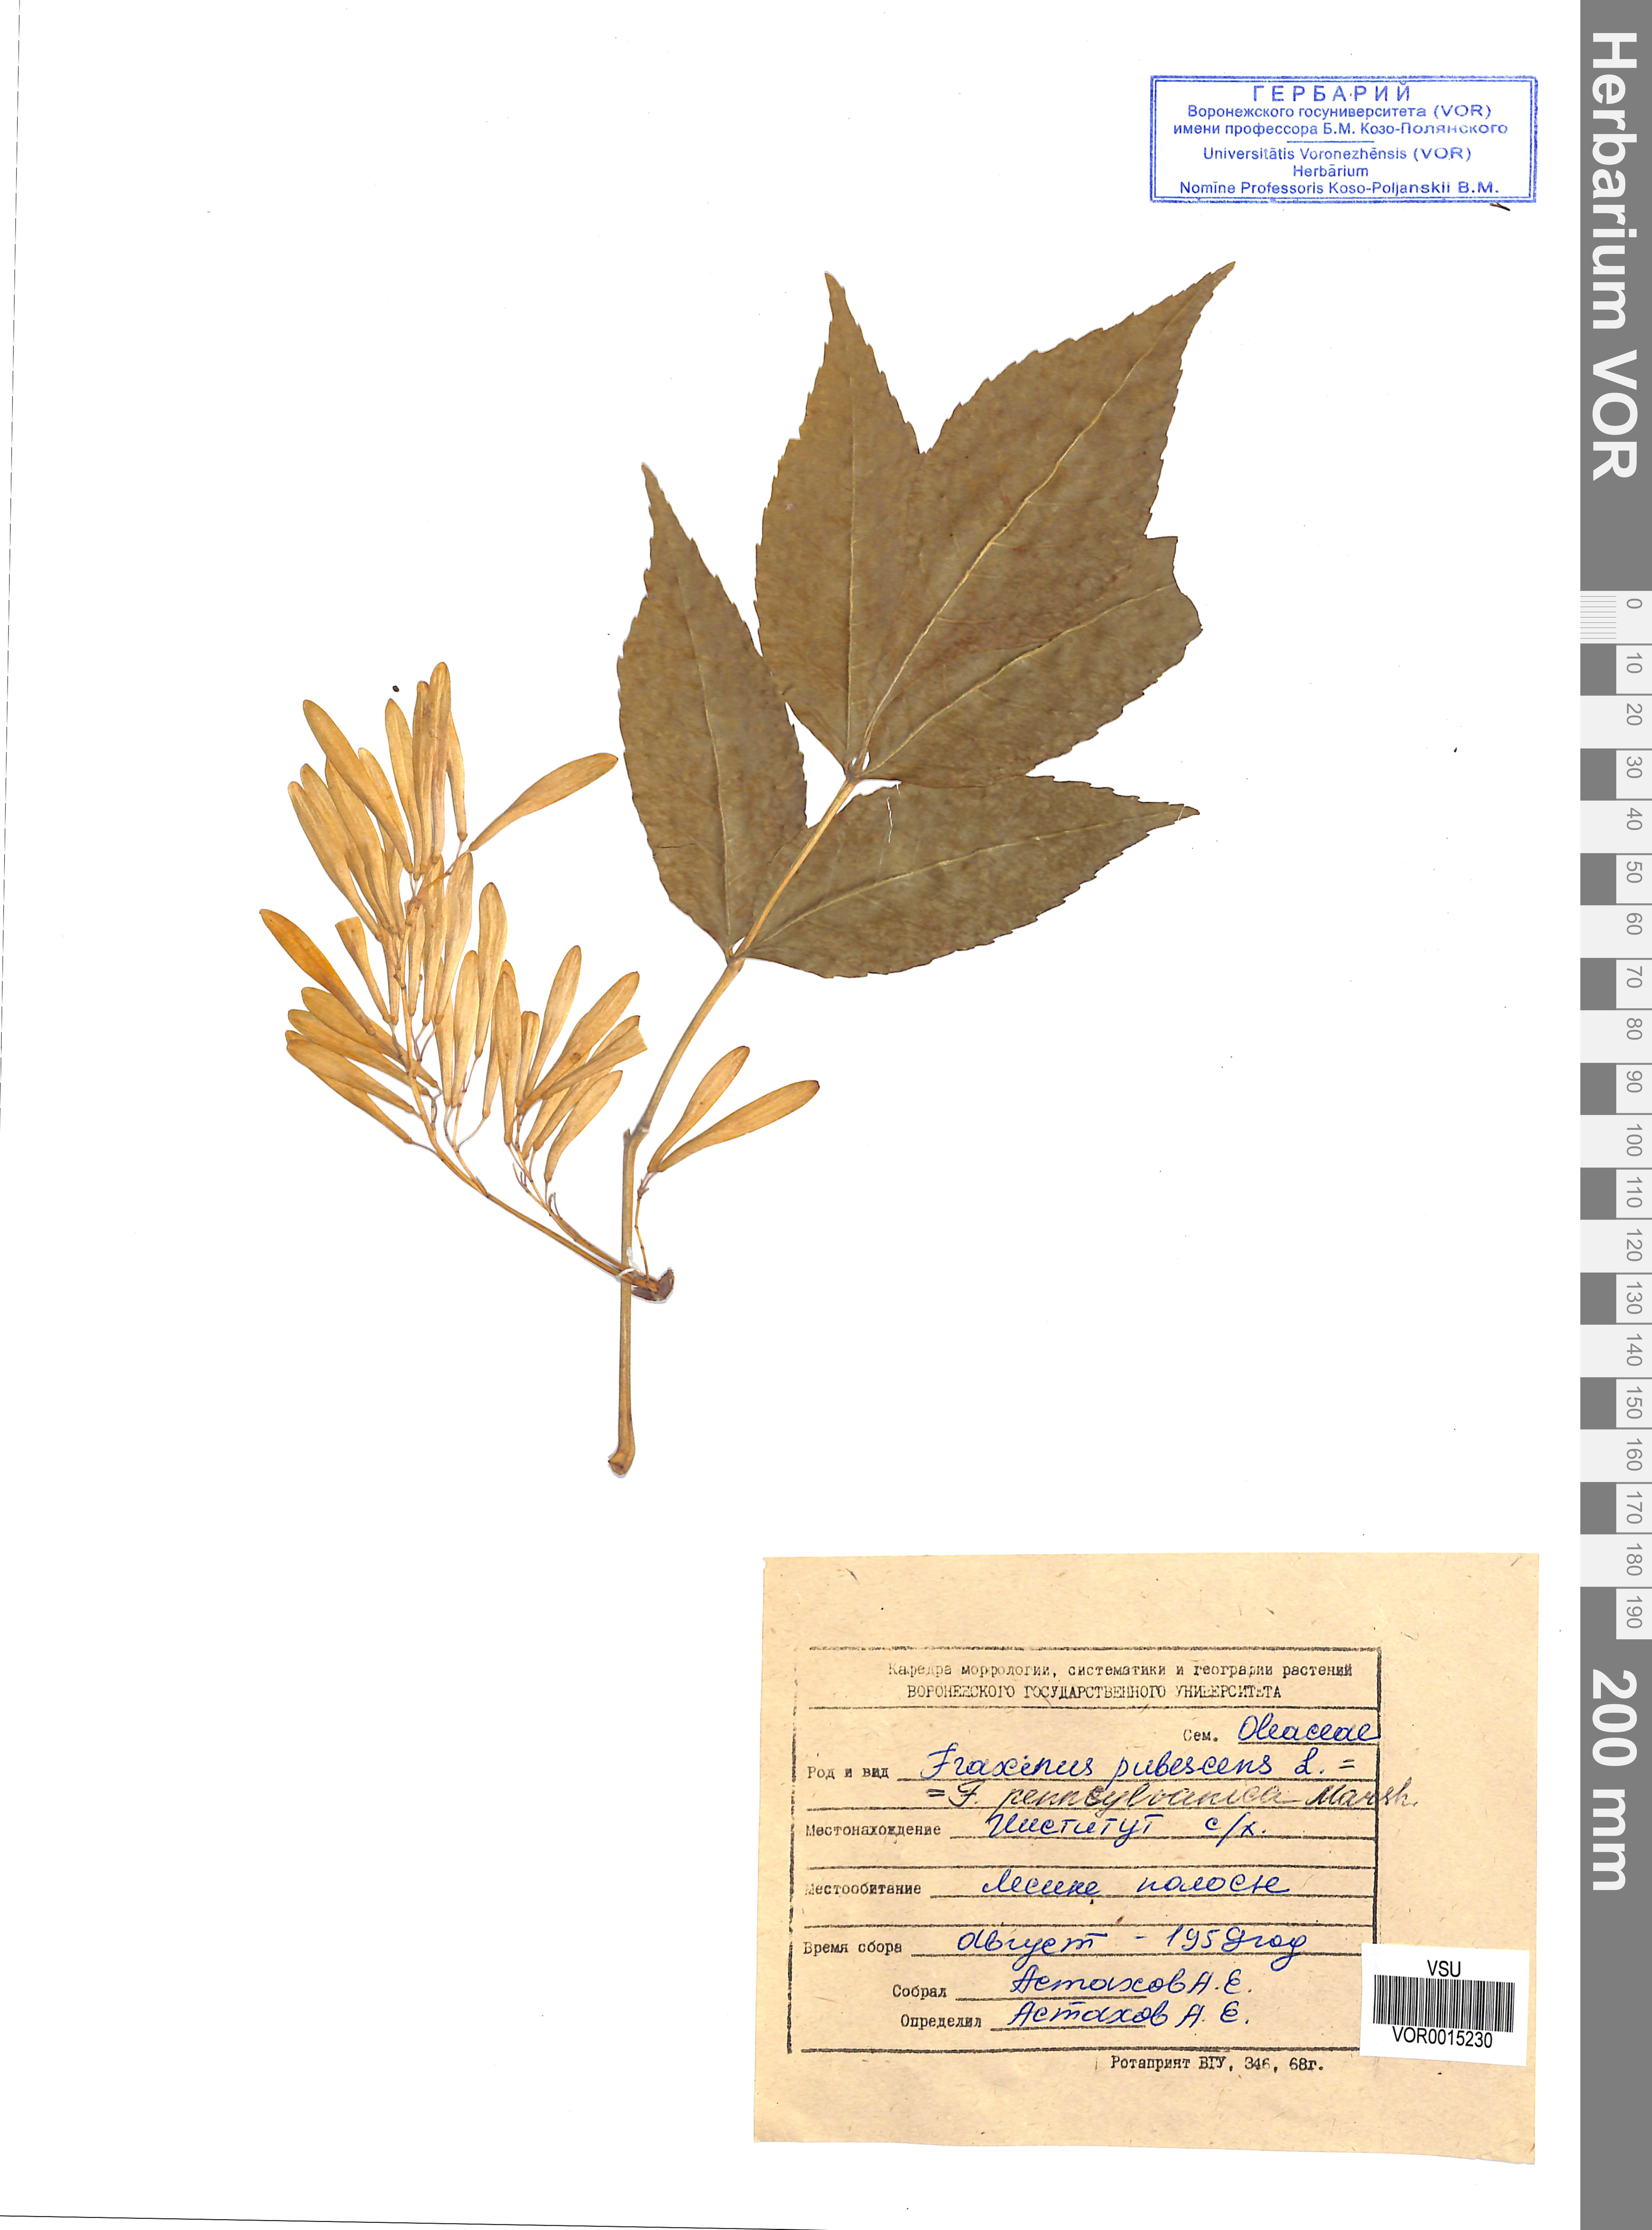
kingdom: Plantae
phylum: Tracheophyta
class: Magnoliopsida
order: Lamiales
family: Oleaceae
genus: Fraxinus
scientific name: Fraxinus pennsylvanica
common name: Green ash
